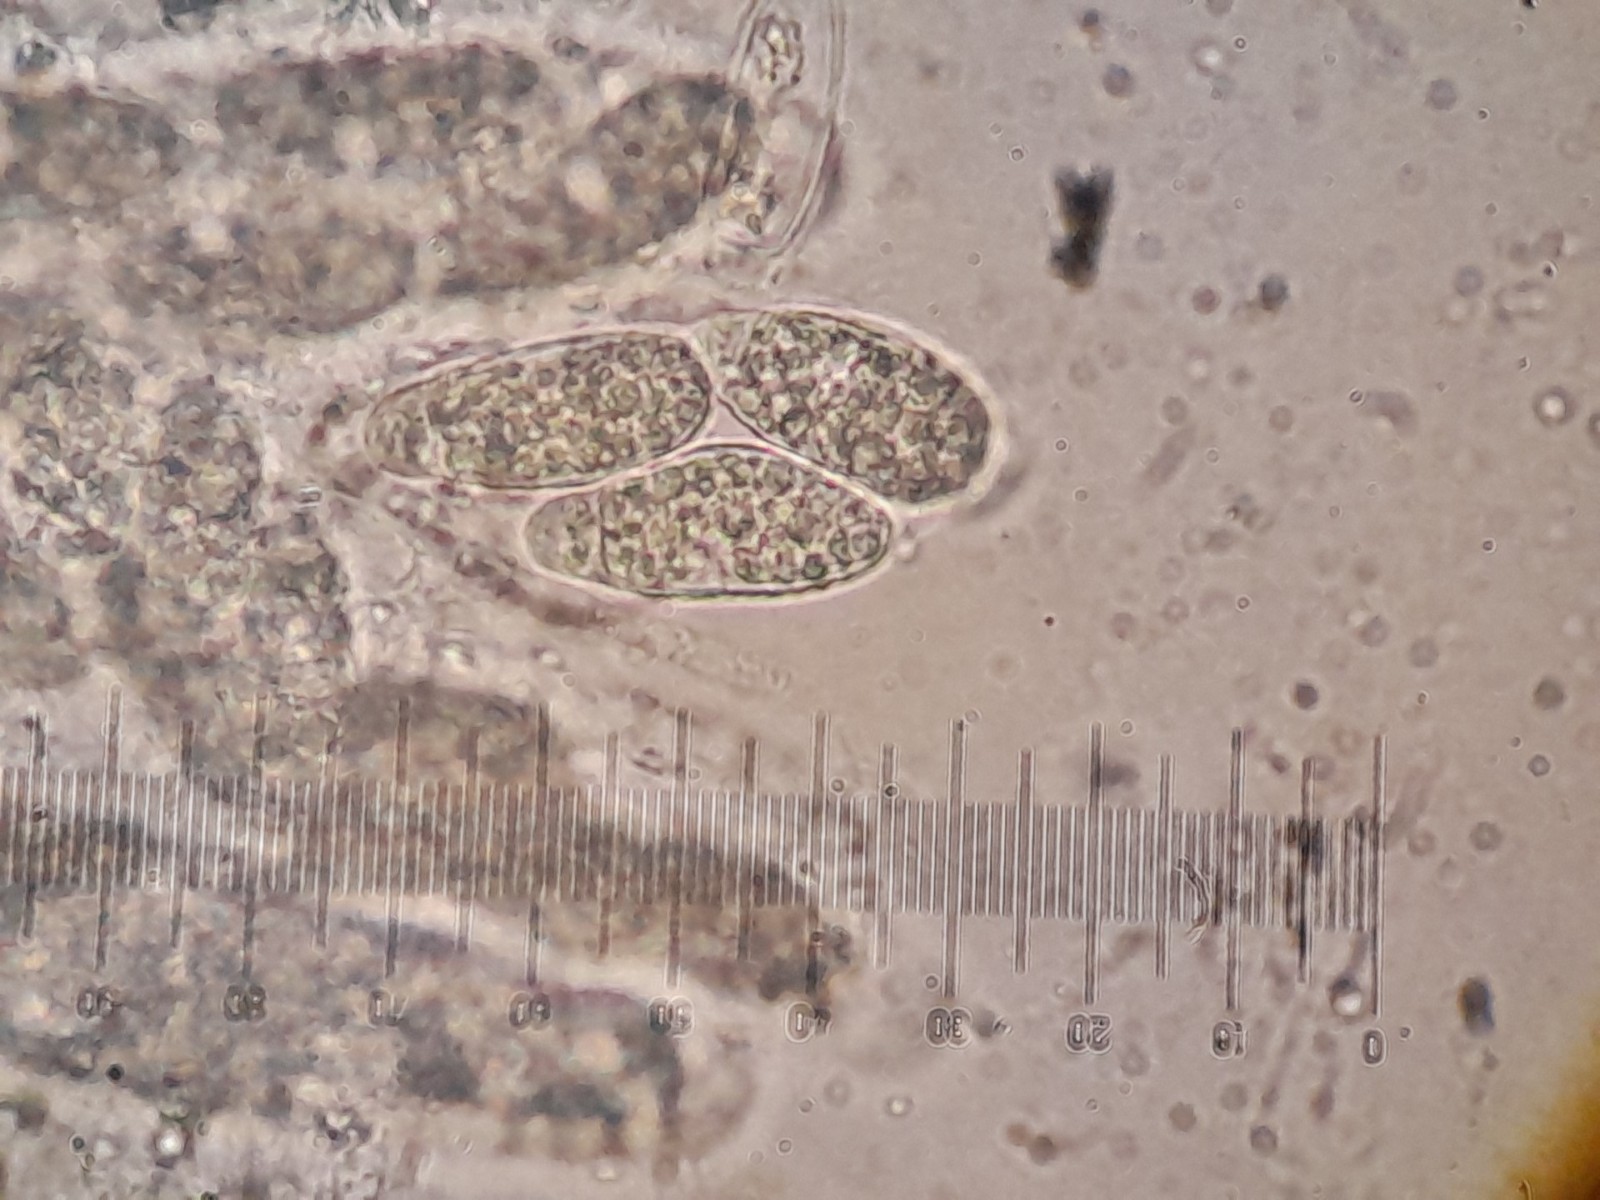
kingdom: Fungi
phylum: Ascomycota
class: Sordariomycetes
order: Xylariales
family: Pseudomassariaceae
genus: Pseudomassaria
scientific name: Pseudomassaria vaccinii
